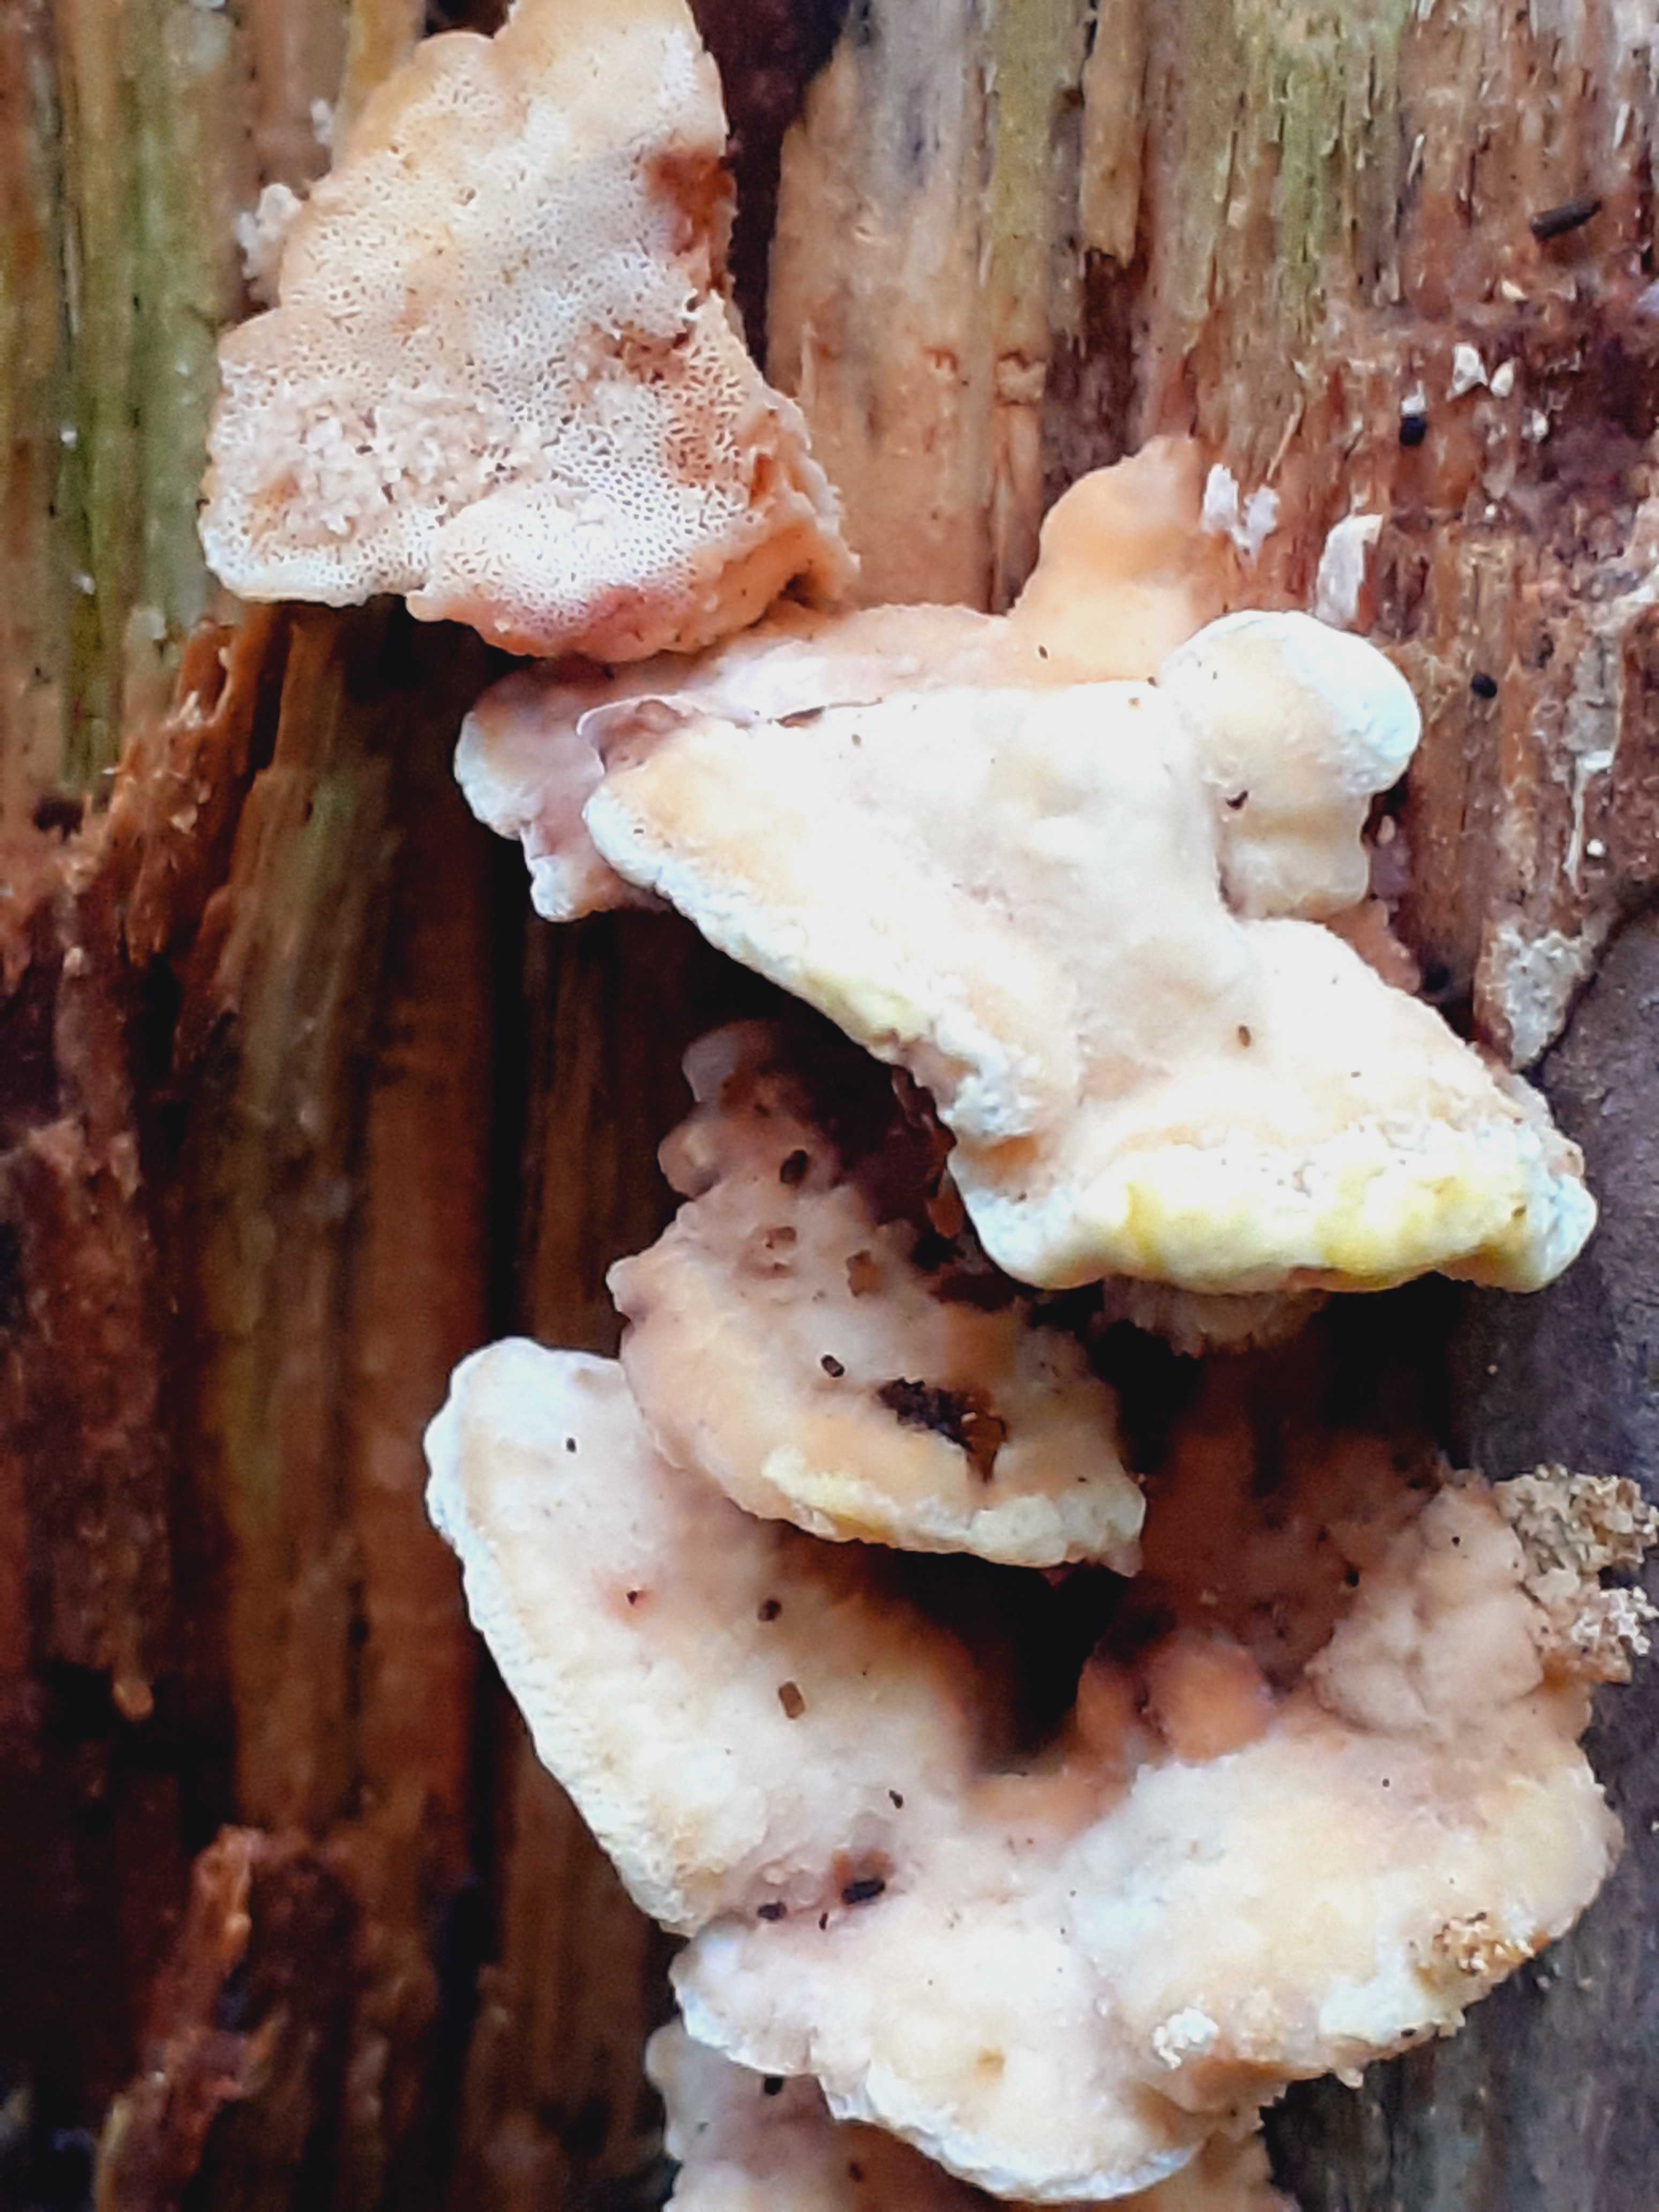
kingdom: Fungi
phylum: Basidiomycota
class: Agaricomycetes
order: Polyporales
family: Steccherinaceae
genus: Antrodiella
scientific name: Antrodiella serpula
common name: gulrandet elastikporesvamp
